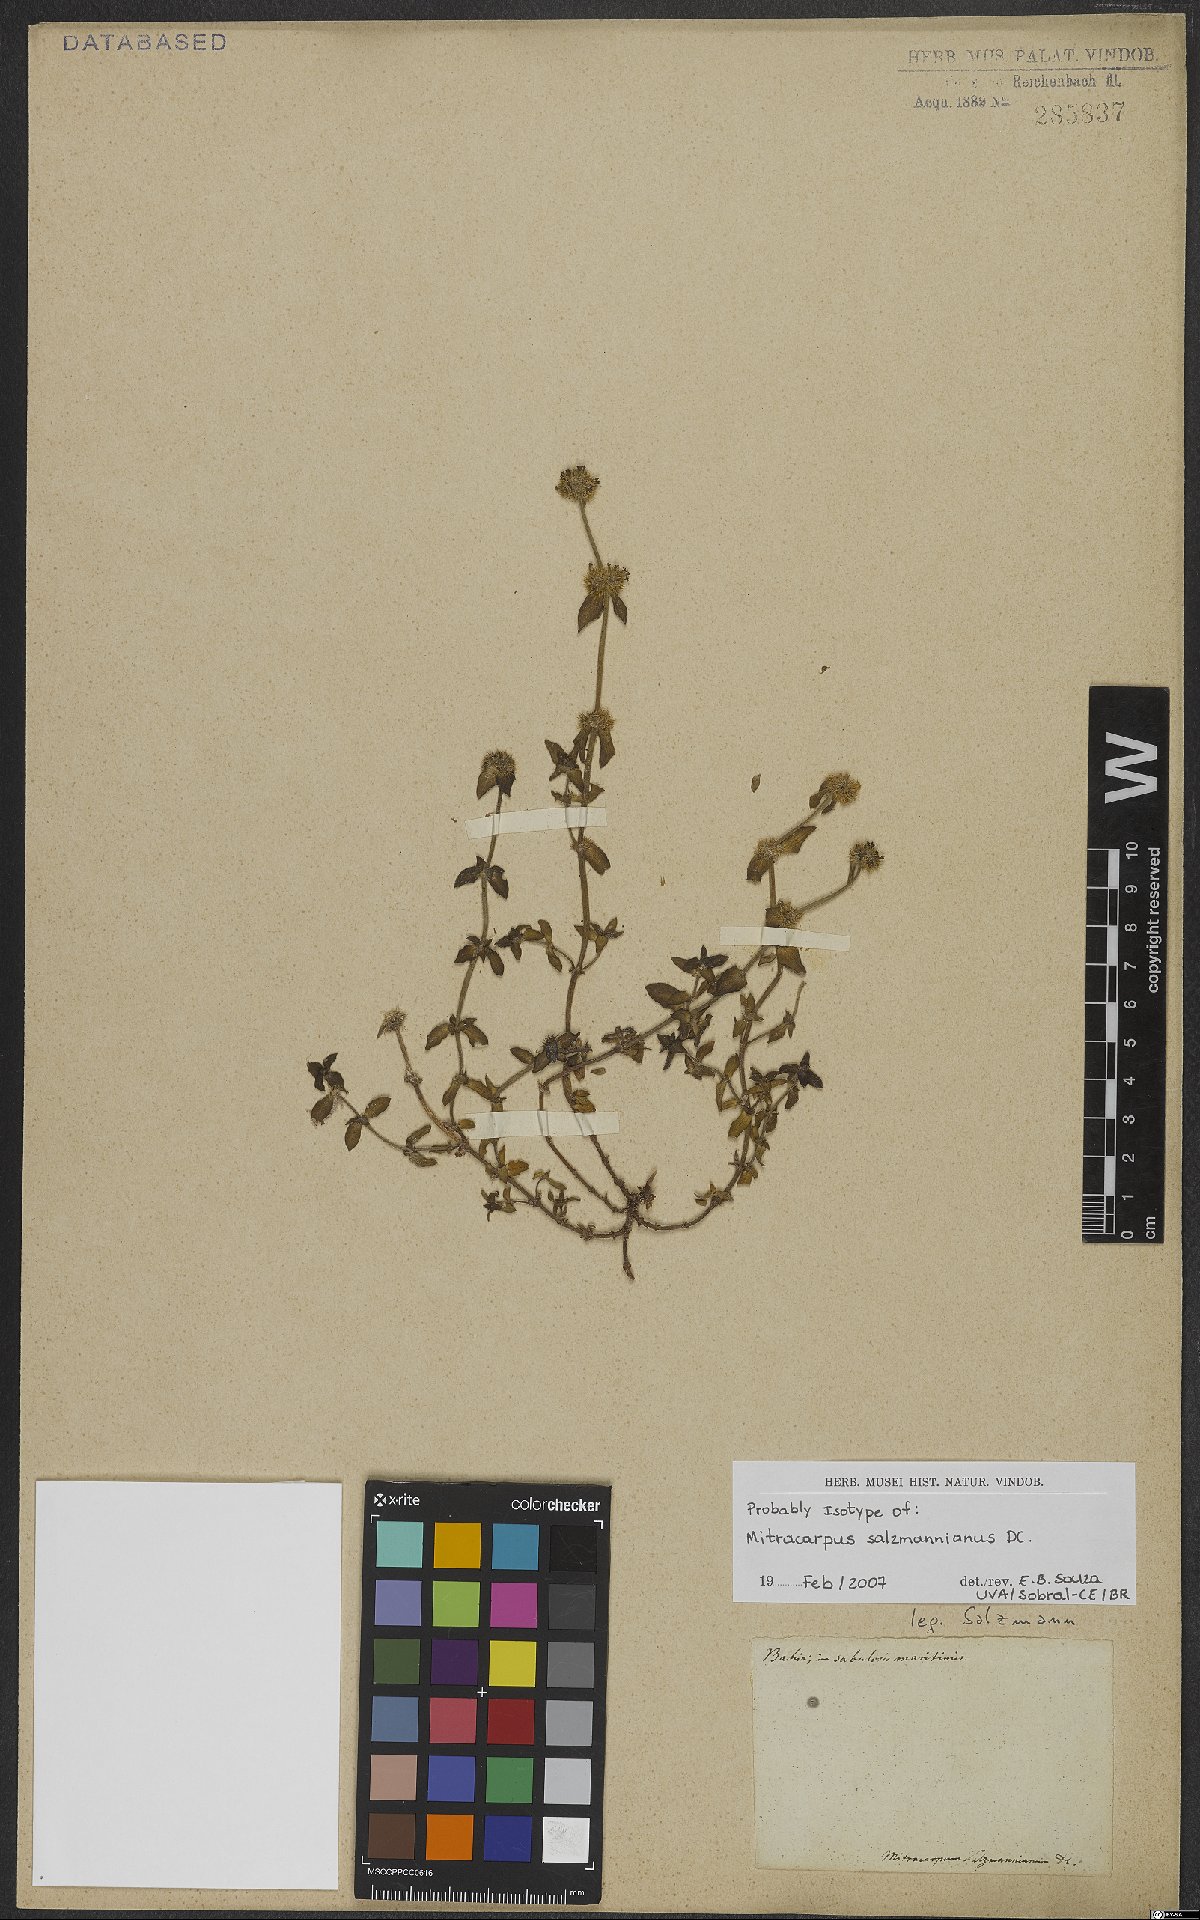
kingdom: Plantae
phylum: Tracheophyta
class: Magnoliopsida
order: Gentianales
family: Rubiaceae
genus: Mitracarpus
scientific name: Mitracarpus salzmannianus
